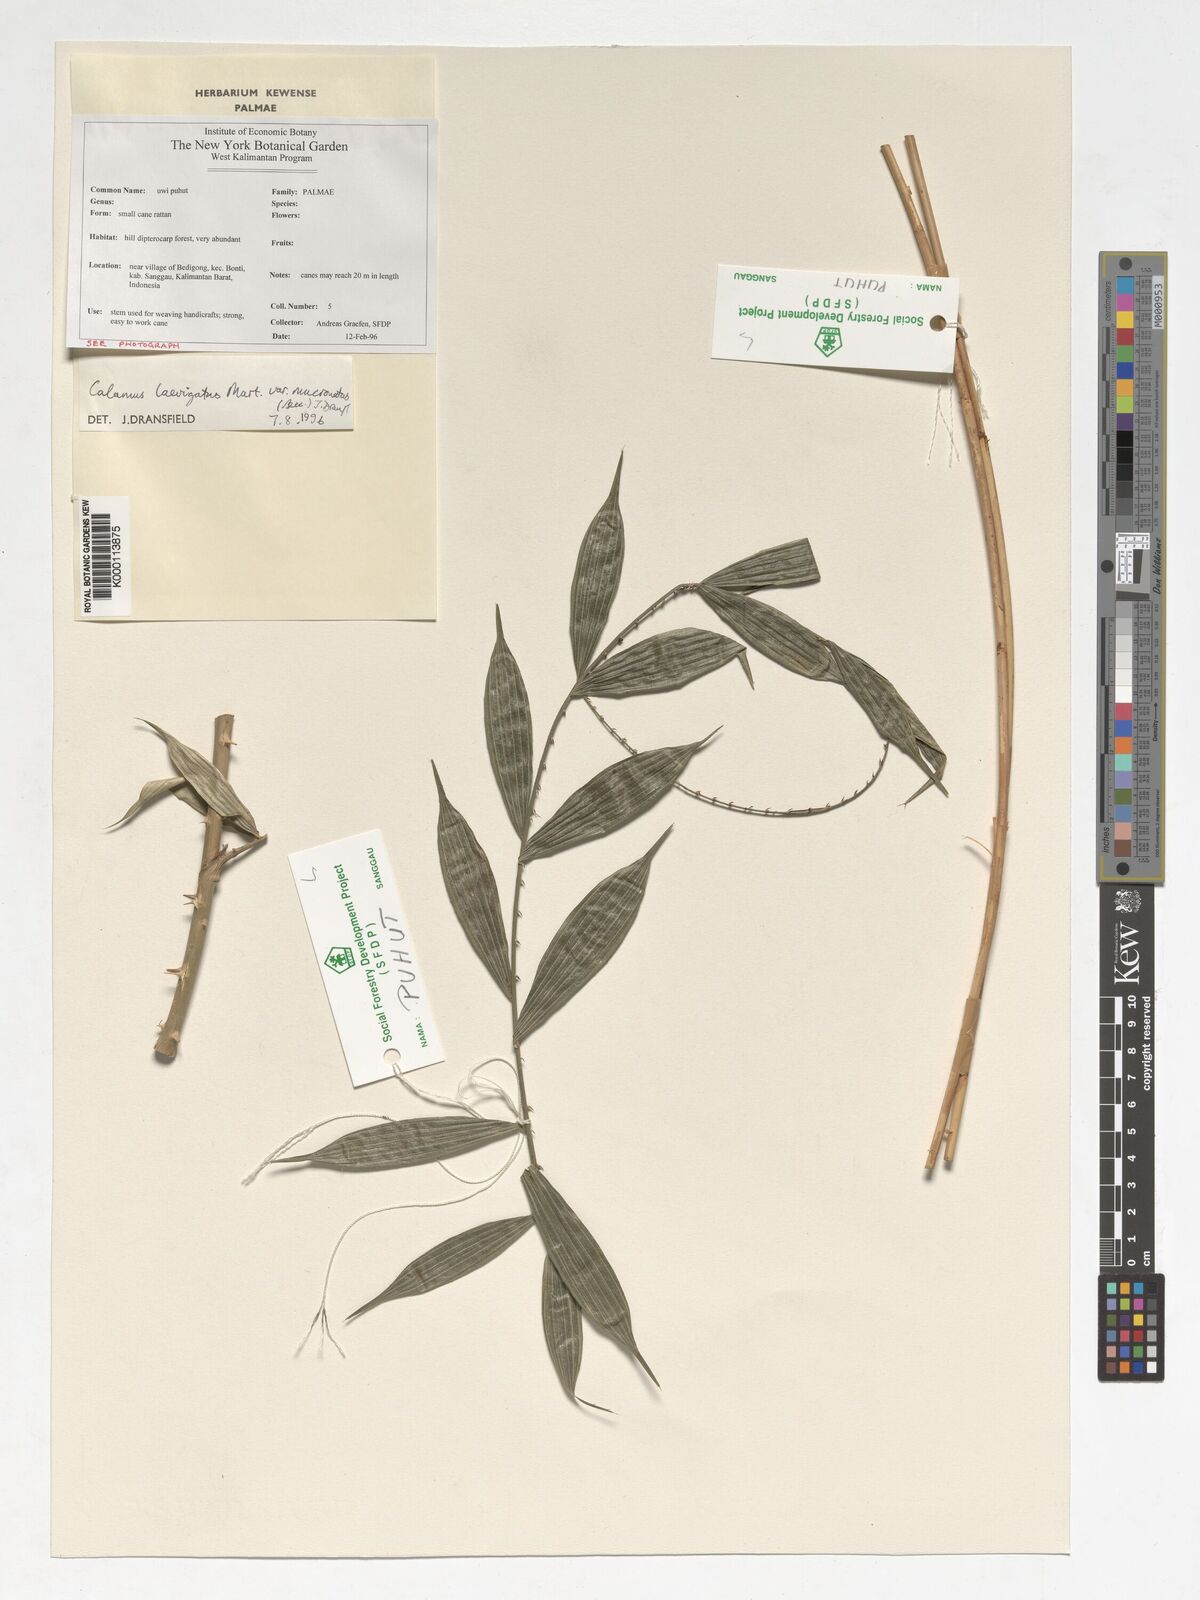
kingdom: Plantae
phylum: Tracheophyta
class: Liliopsida
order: Arecales
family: Arecaceae
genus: Calamus
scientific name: Calamus plicatus
